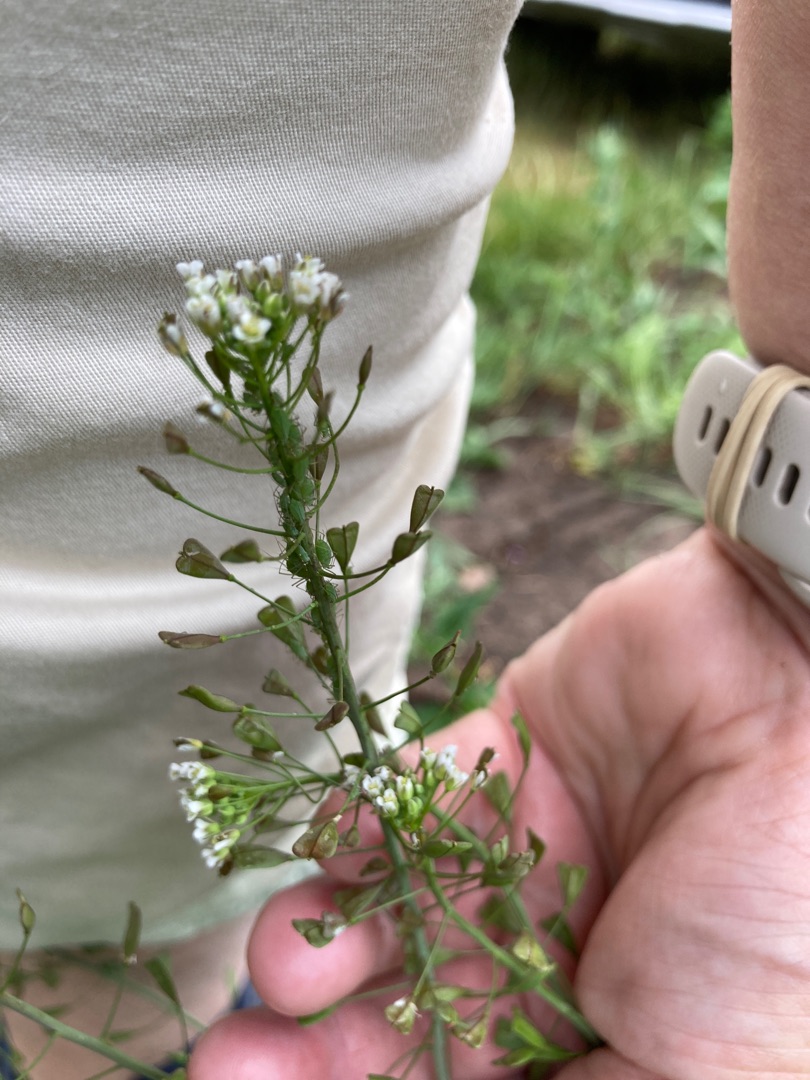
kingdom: Plantae
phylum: Tracheophyta
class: Magnoliopsida
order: Brassicales
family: Brassicaceae
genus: Capsella
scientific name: Capsella bursa-pastoris
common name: Hyrdetaske
